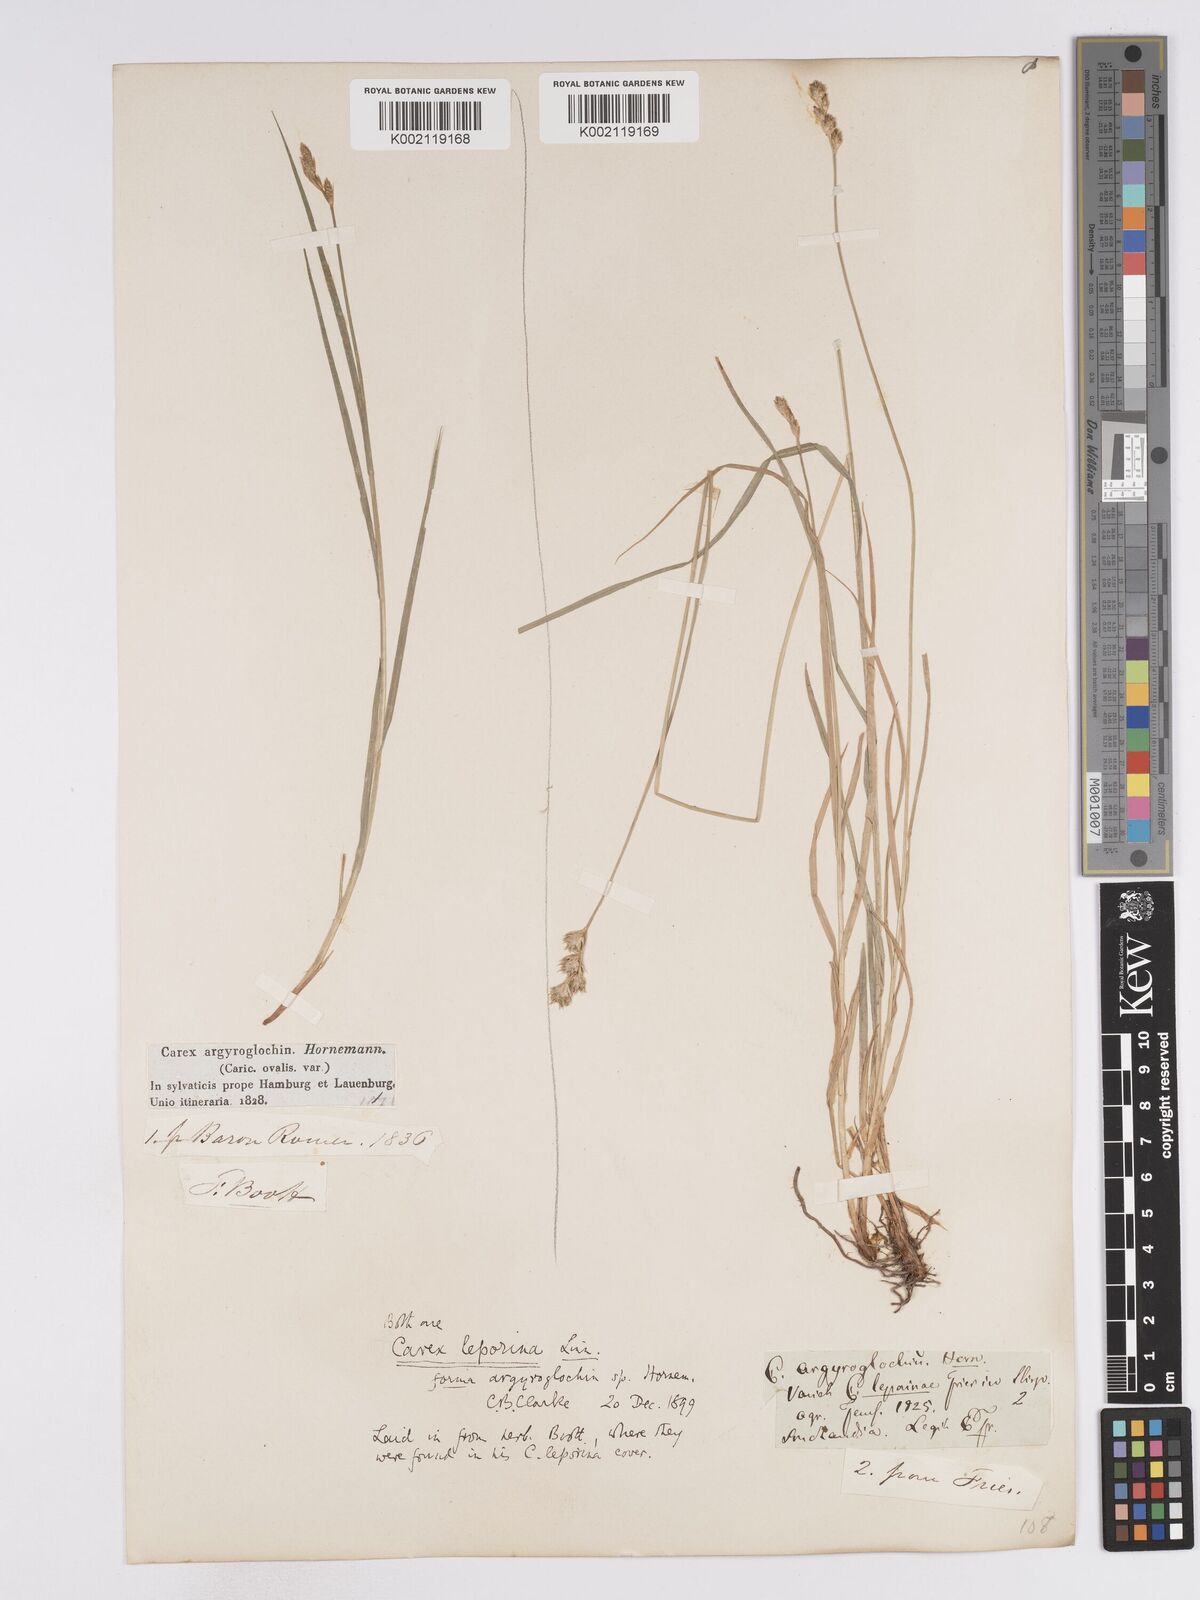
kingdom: Plantae
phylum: Tracheophyta
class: Liliopsida
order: Poales
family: Cyperaceae
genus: Carex
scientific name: Carex leporina
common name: Oval sedge
